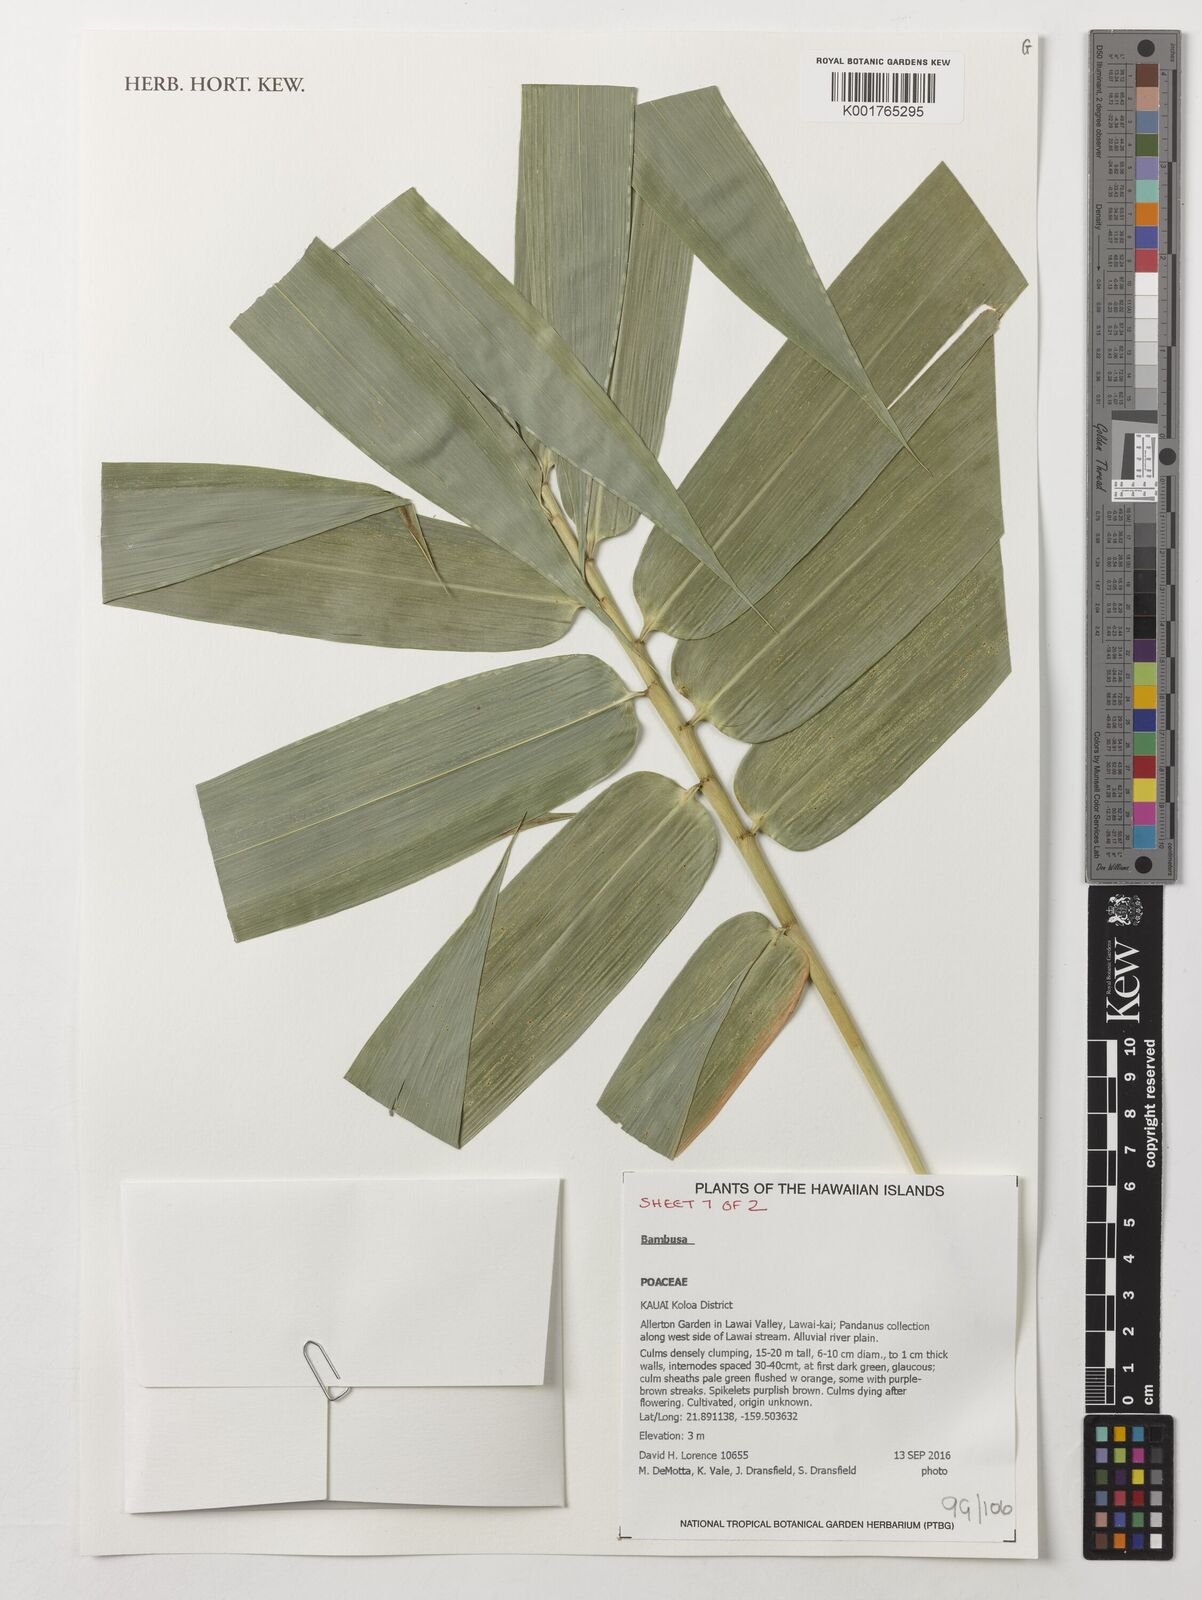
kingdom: Plantae
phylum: Tracheophyta
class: Liliopsida
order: Poales
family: Poaceae
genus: Bambusa
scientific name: Bambusa
